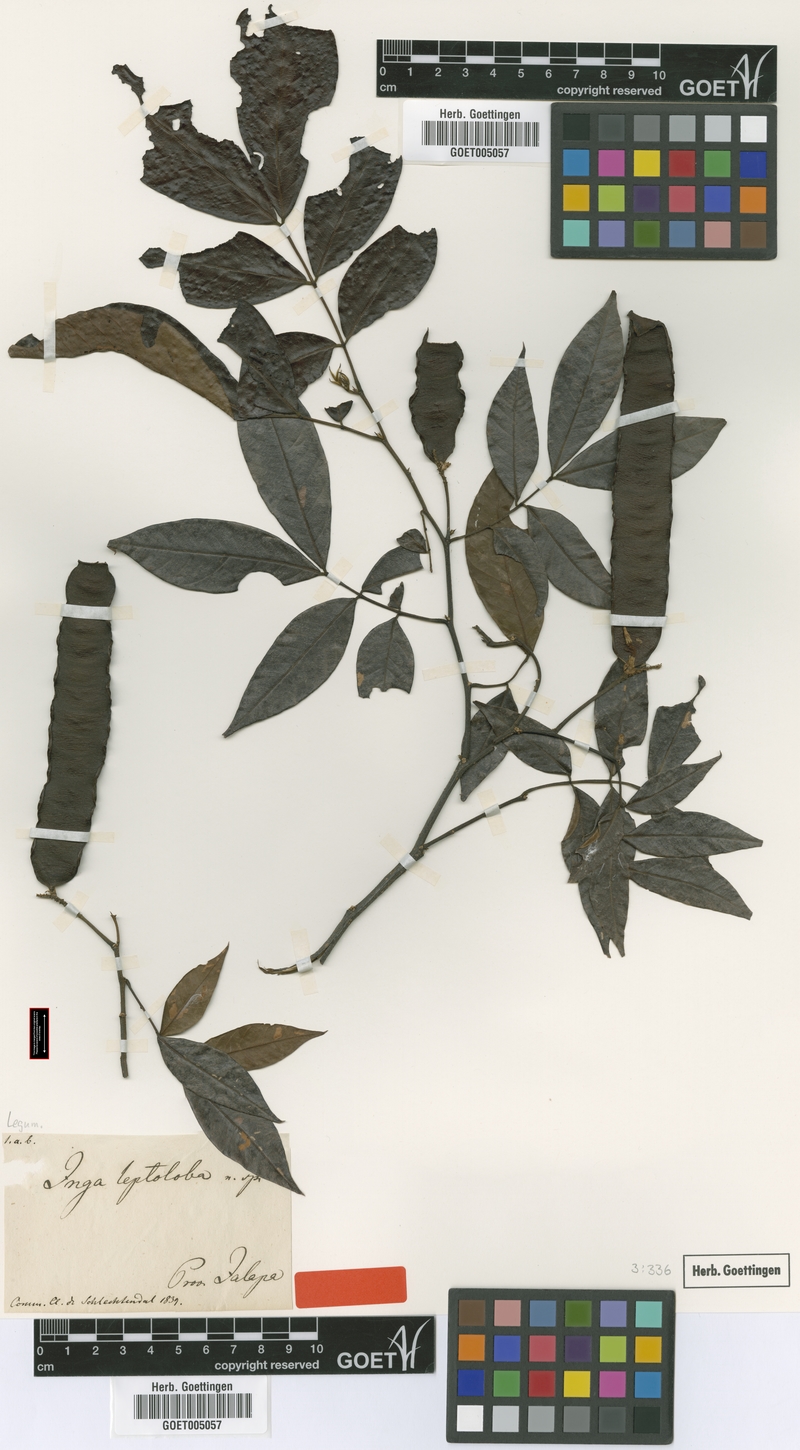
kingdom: Plantae
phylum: Tracheophyta
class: Magnoliopsida
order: Fabales
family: Fabaceae
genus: Inga
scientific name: Inga punctata
